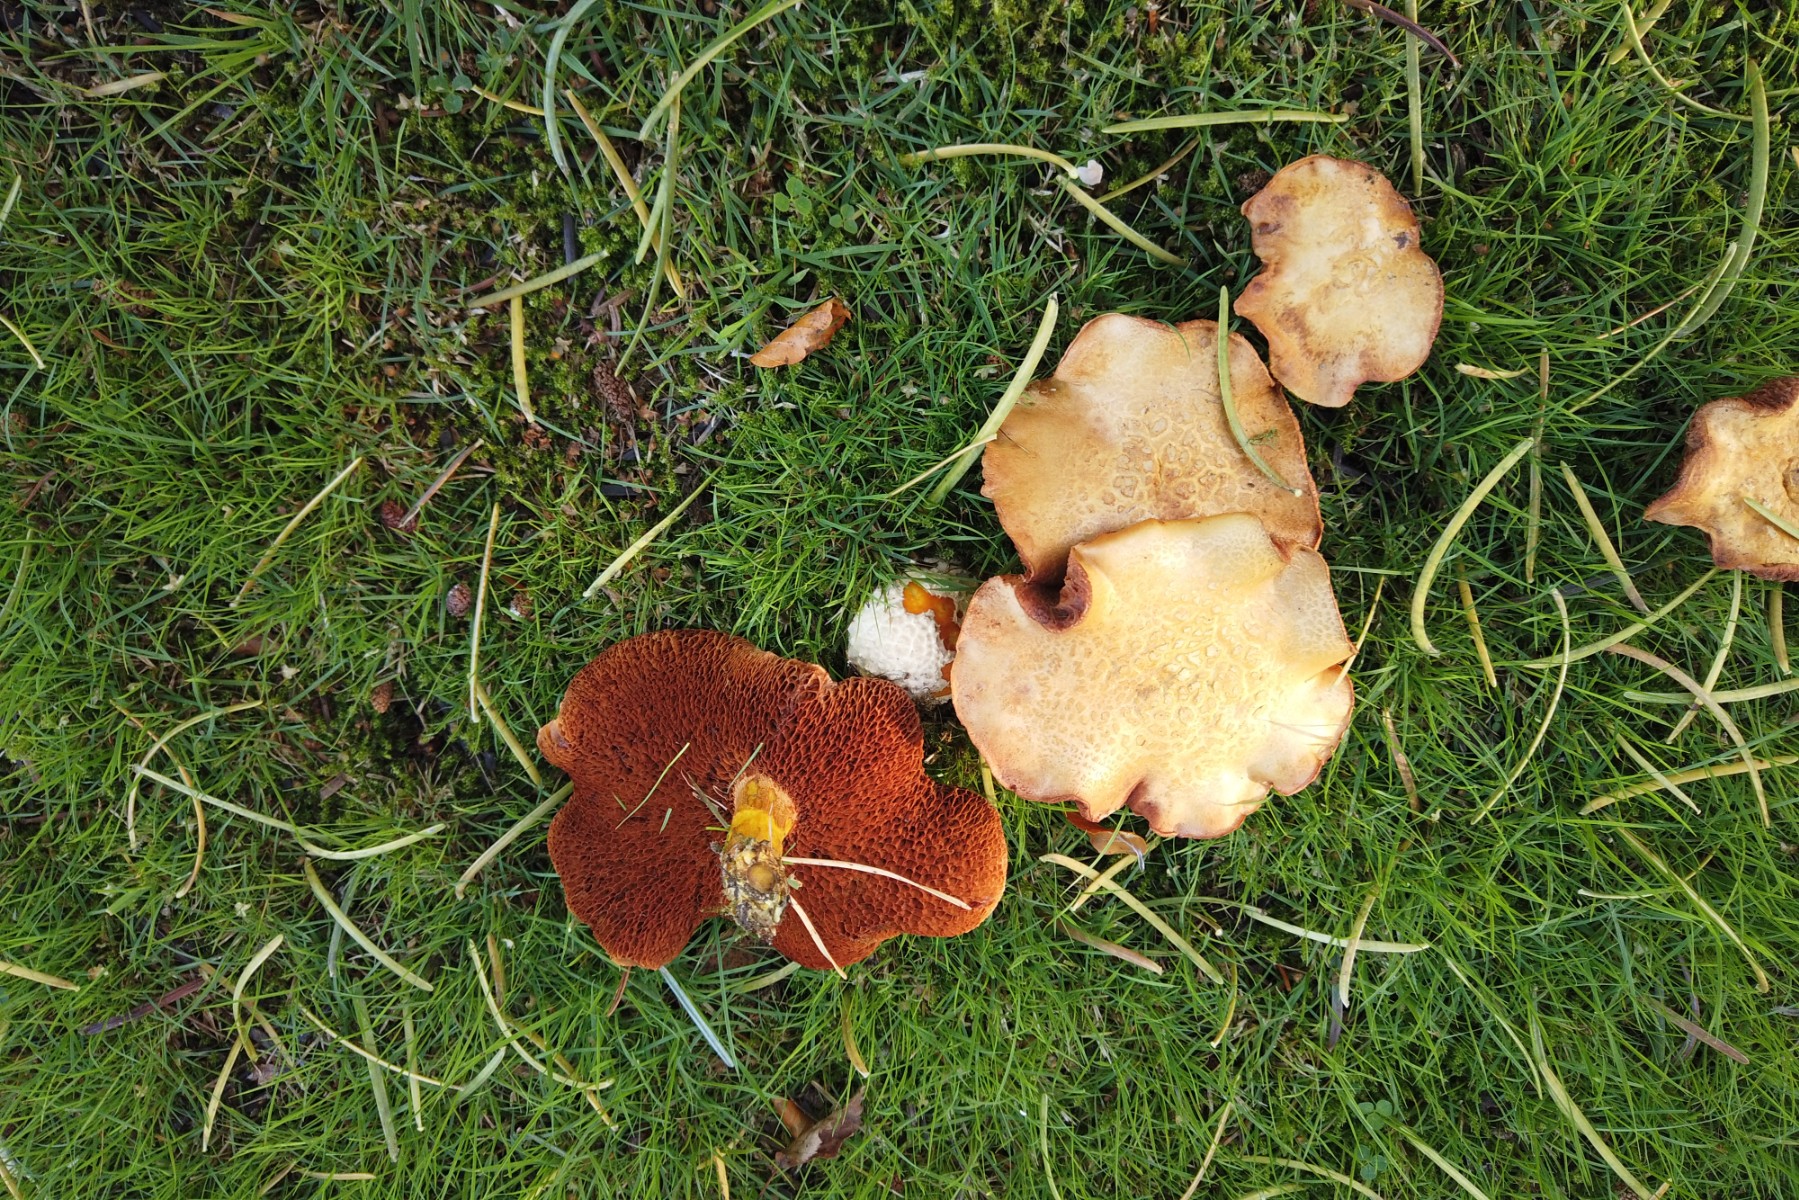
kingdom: Fungi
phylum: Basidiomycota
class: Agaricomycetes
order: Boletales
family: Boletaceae
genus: Chalciporus
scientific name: Chalciporus piperatus
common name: peberrørhat
